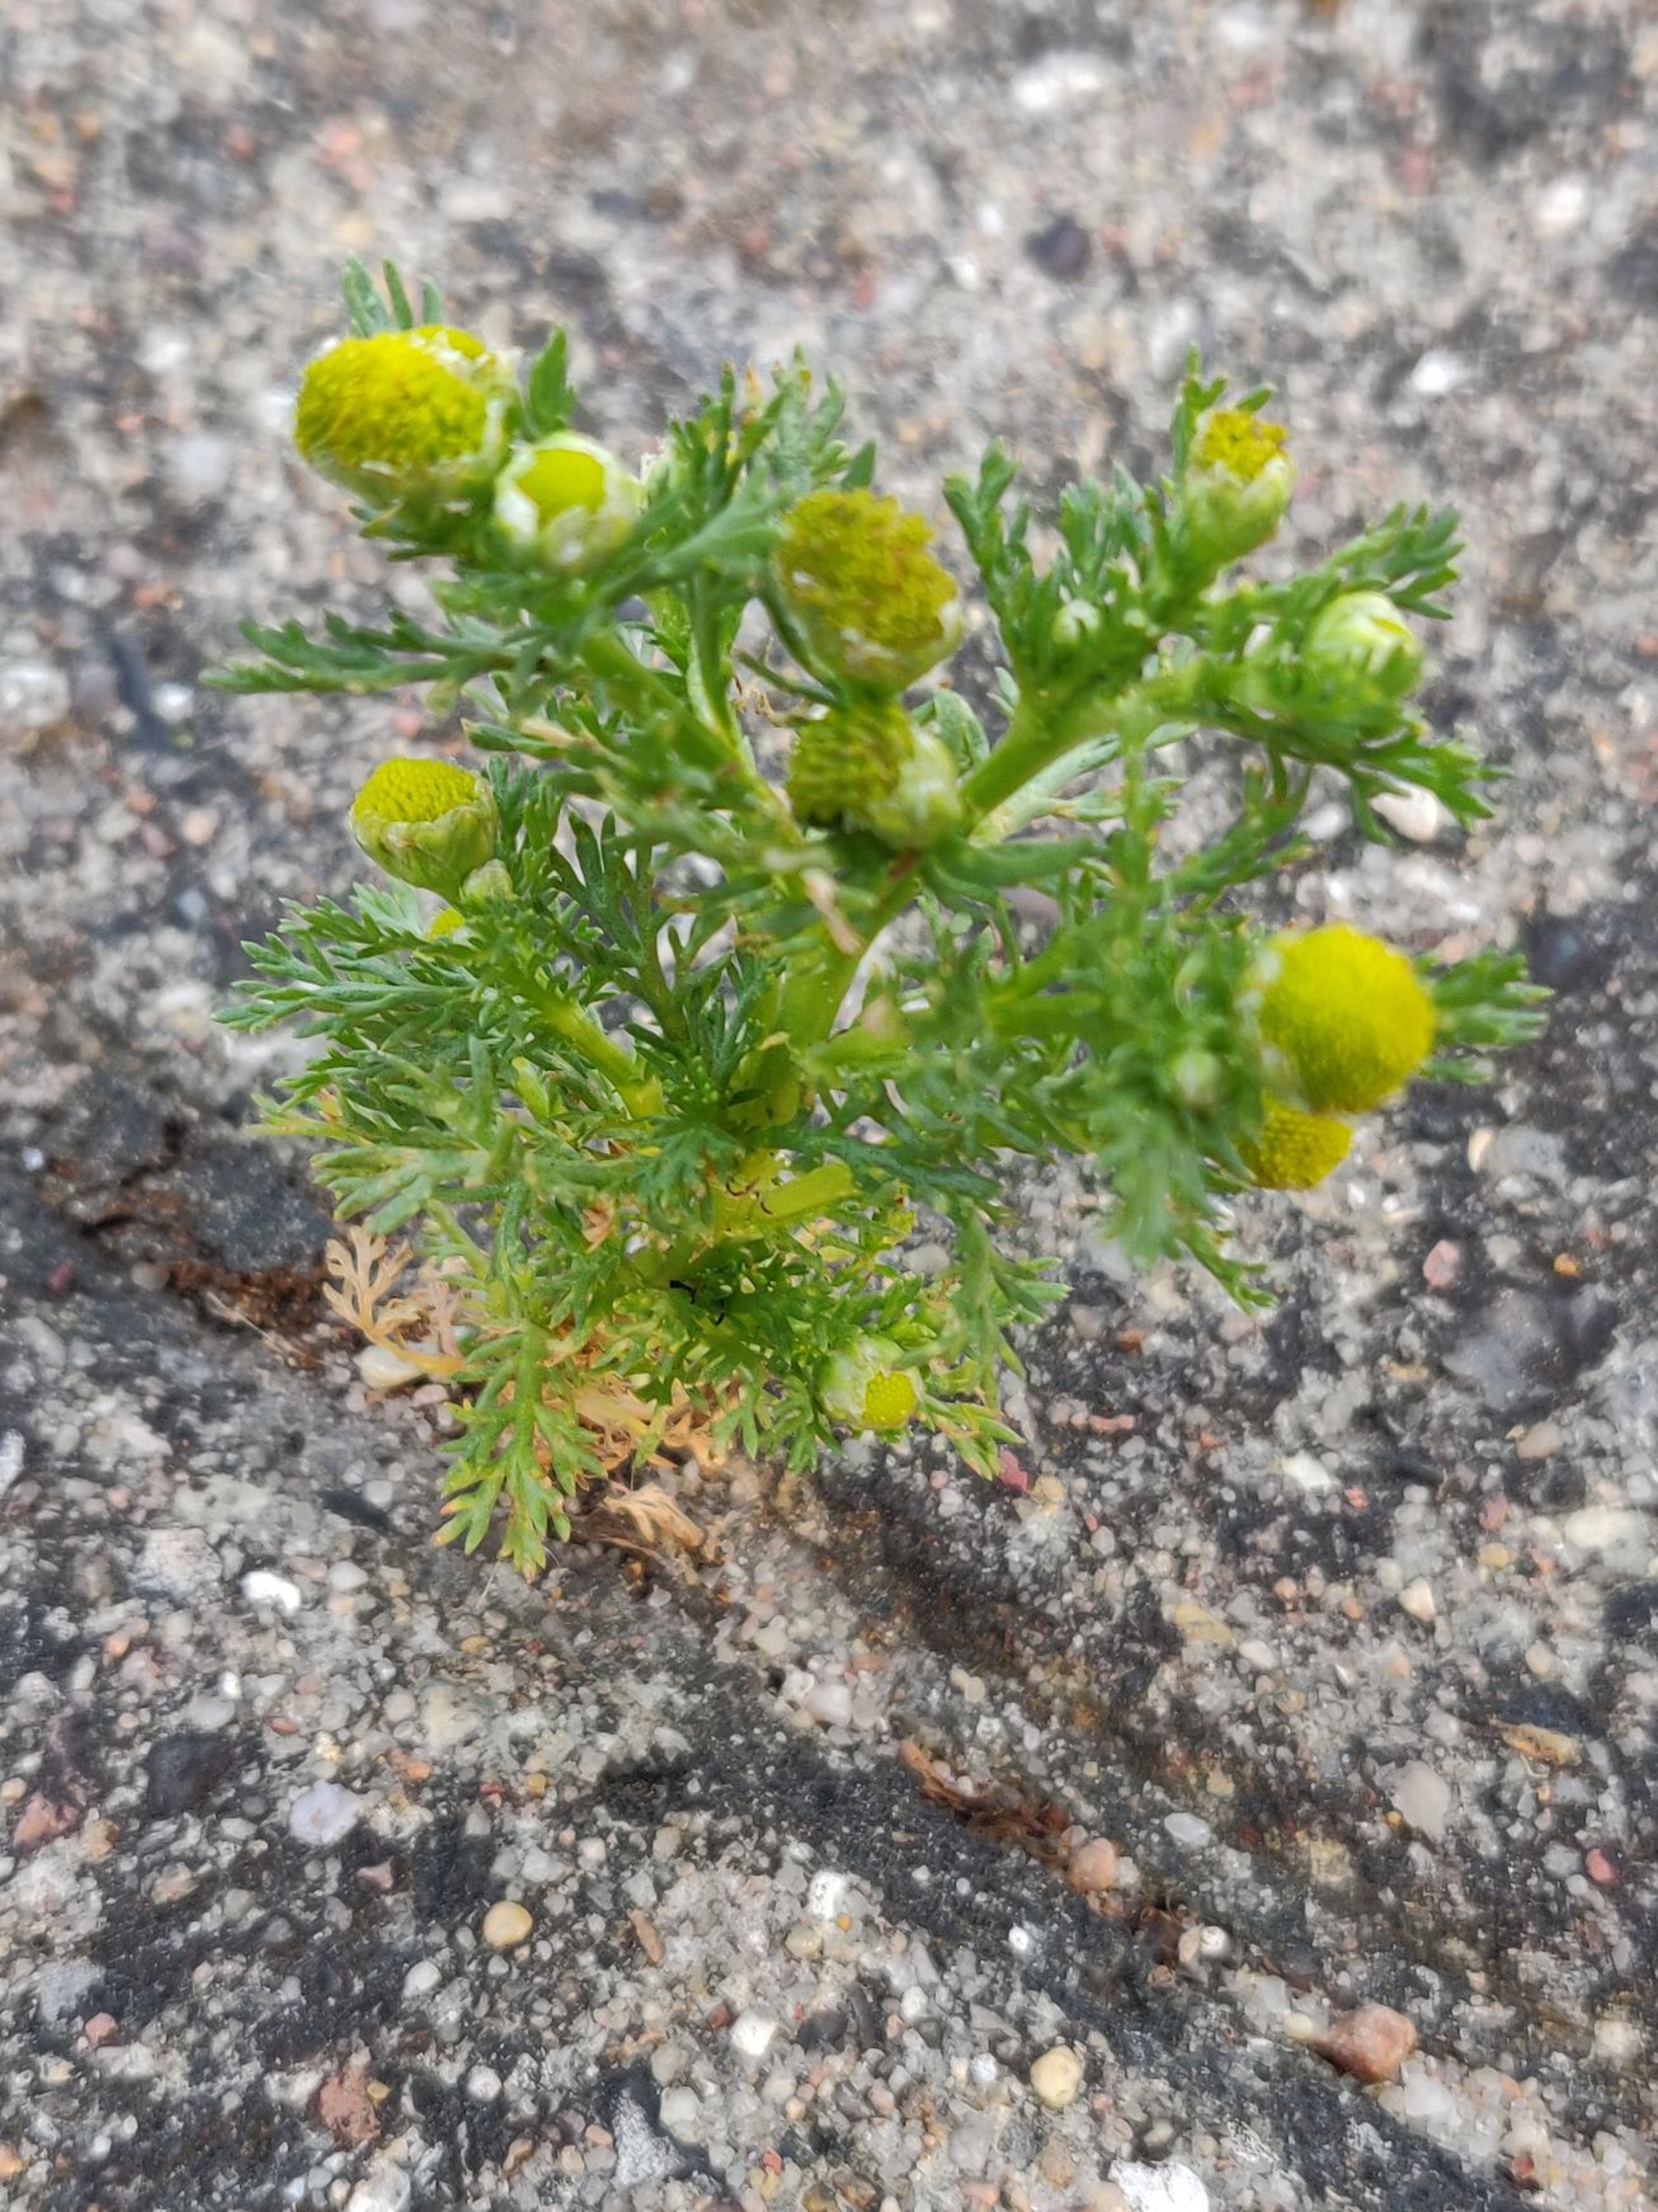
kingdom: Plantae
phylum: Tracheophyta
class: Magnoliopsida
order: Asterales
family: Asteraceae
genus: Matricaria
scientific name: Matricaria discoidea
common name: Skive-kamille
